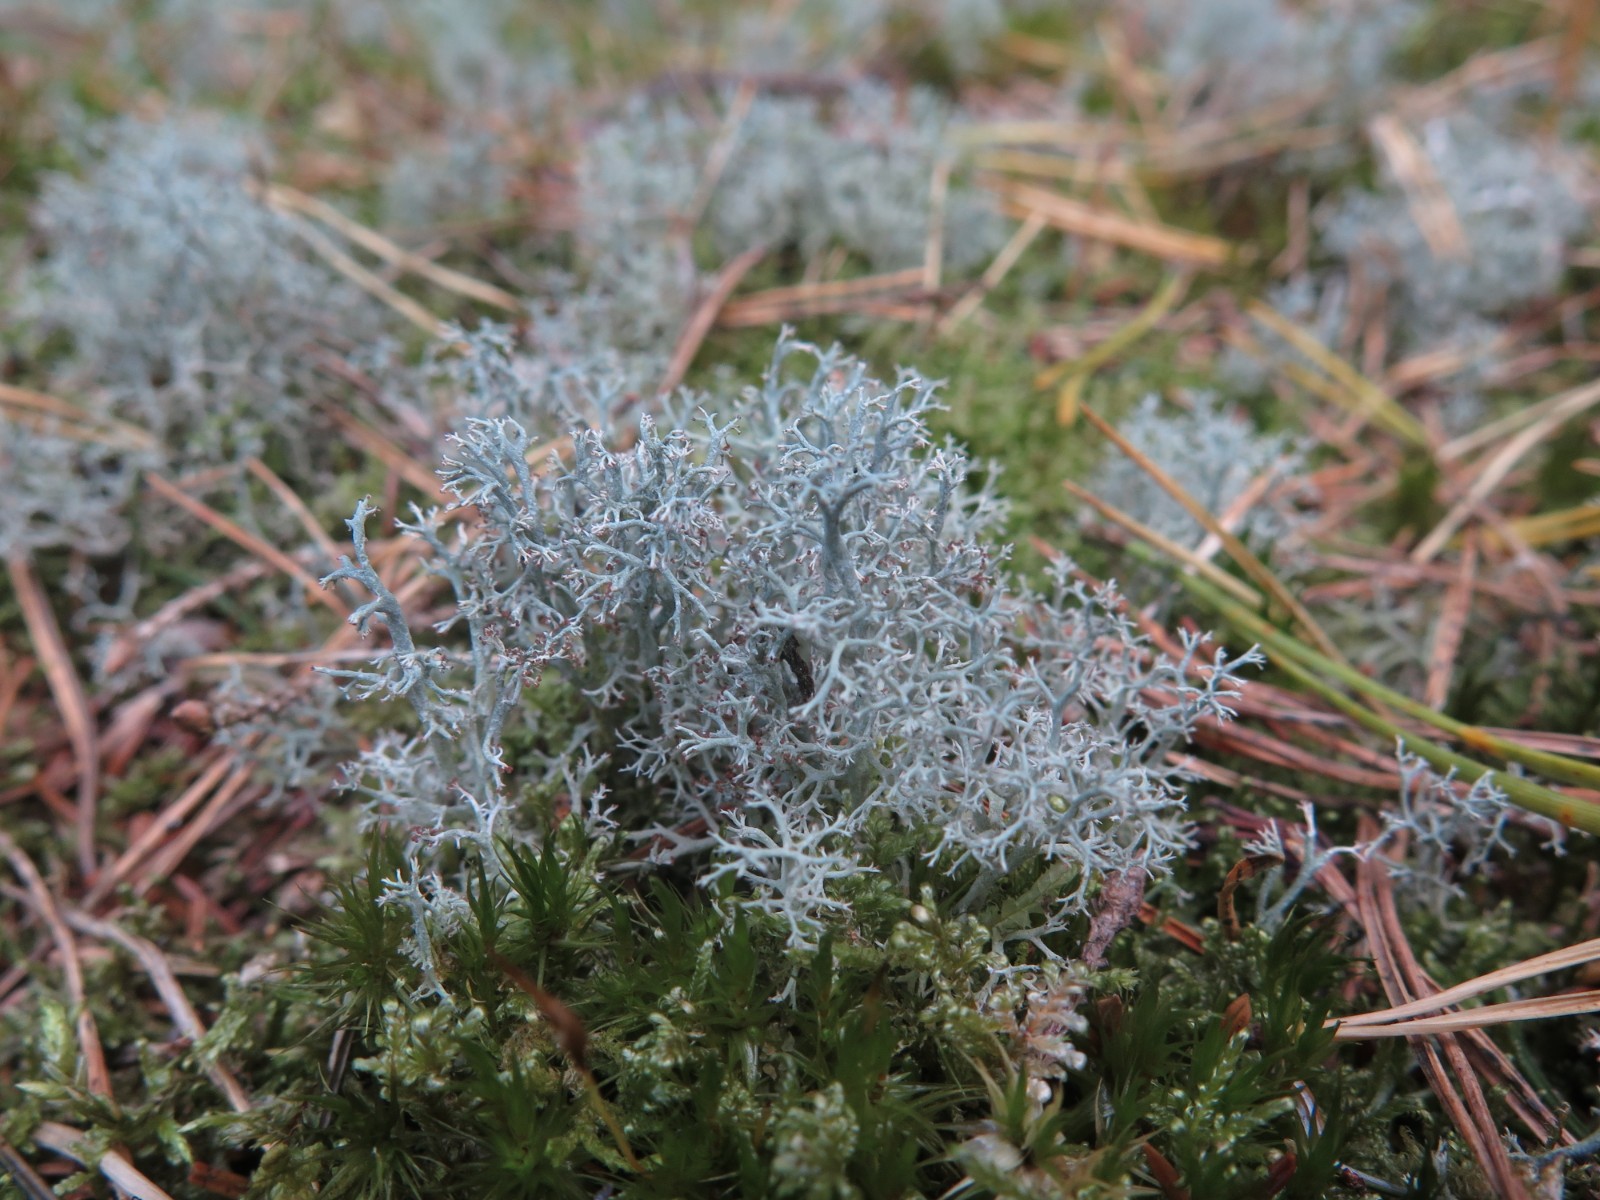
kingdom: Fungi
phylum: Ascomycota
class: Lecanoromycetes
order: Lecanorales
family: Cladoniaceae
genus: Cladonia
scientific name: Cladonia portentosa
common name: hede-rensdyrlav
